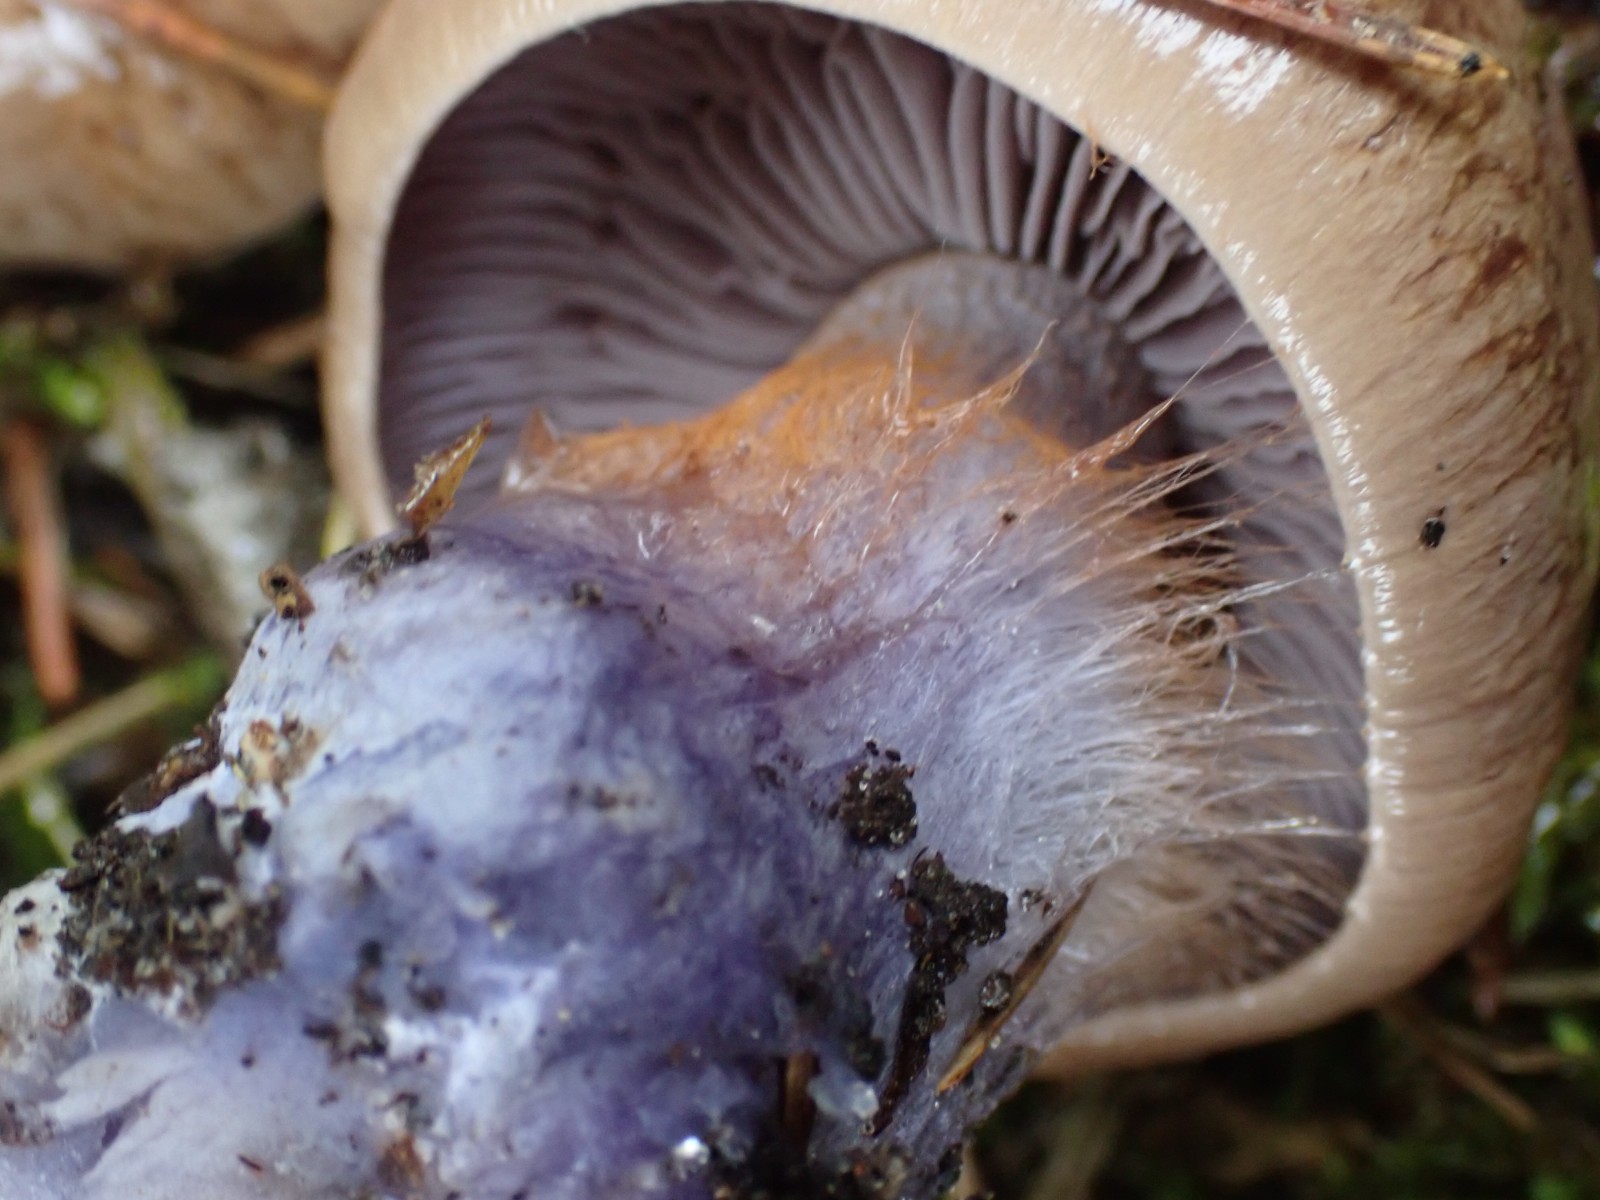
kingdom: Fungi
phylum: Basidiomycota
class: Agaricomycetes
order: Agaricales
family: Cortinariaceae
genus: Thaxterogaster
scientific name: Thaxterogaster purpurascens
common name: purpurbrun slørhat
